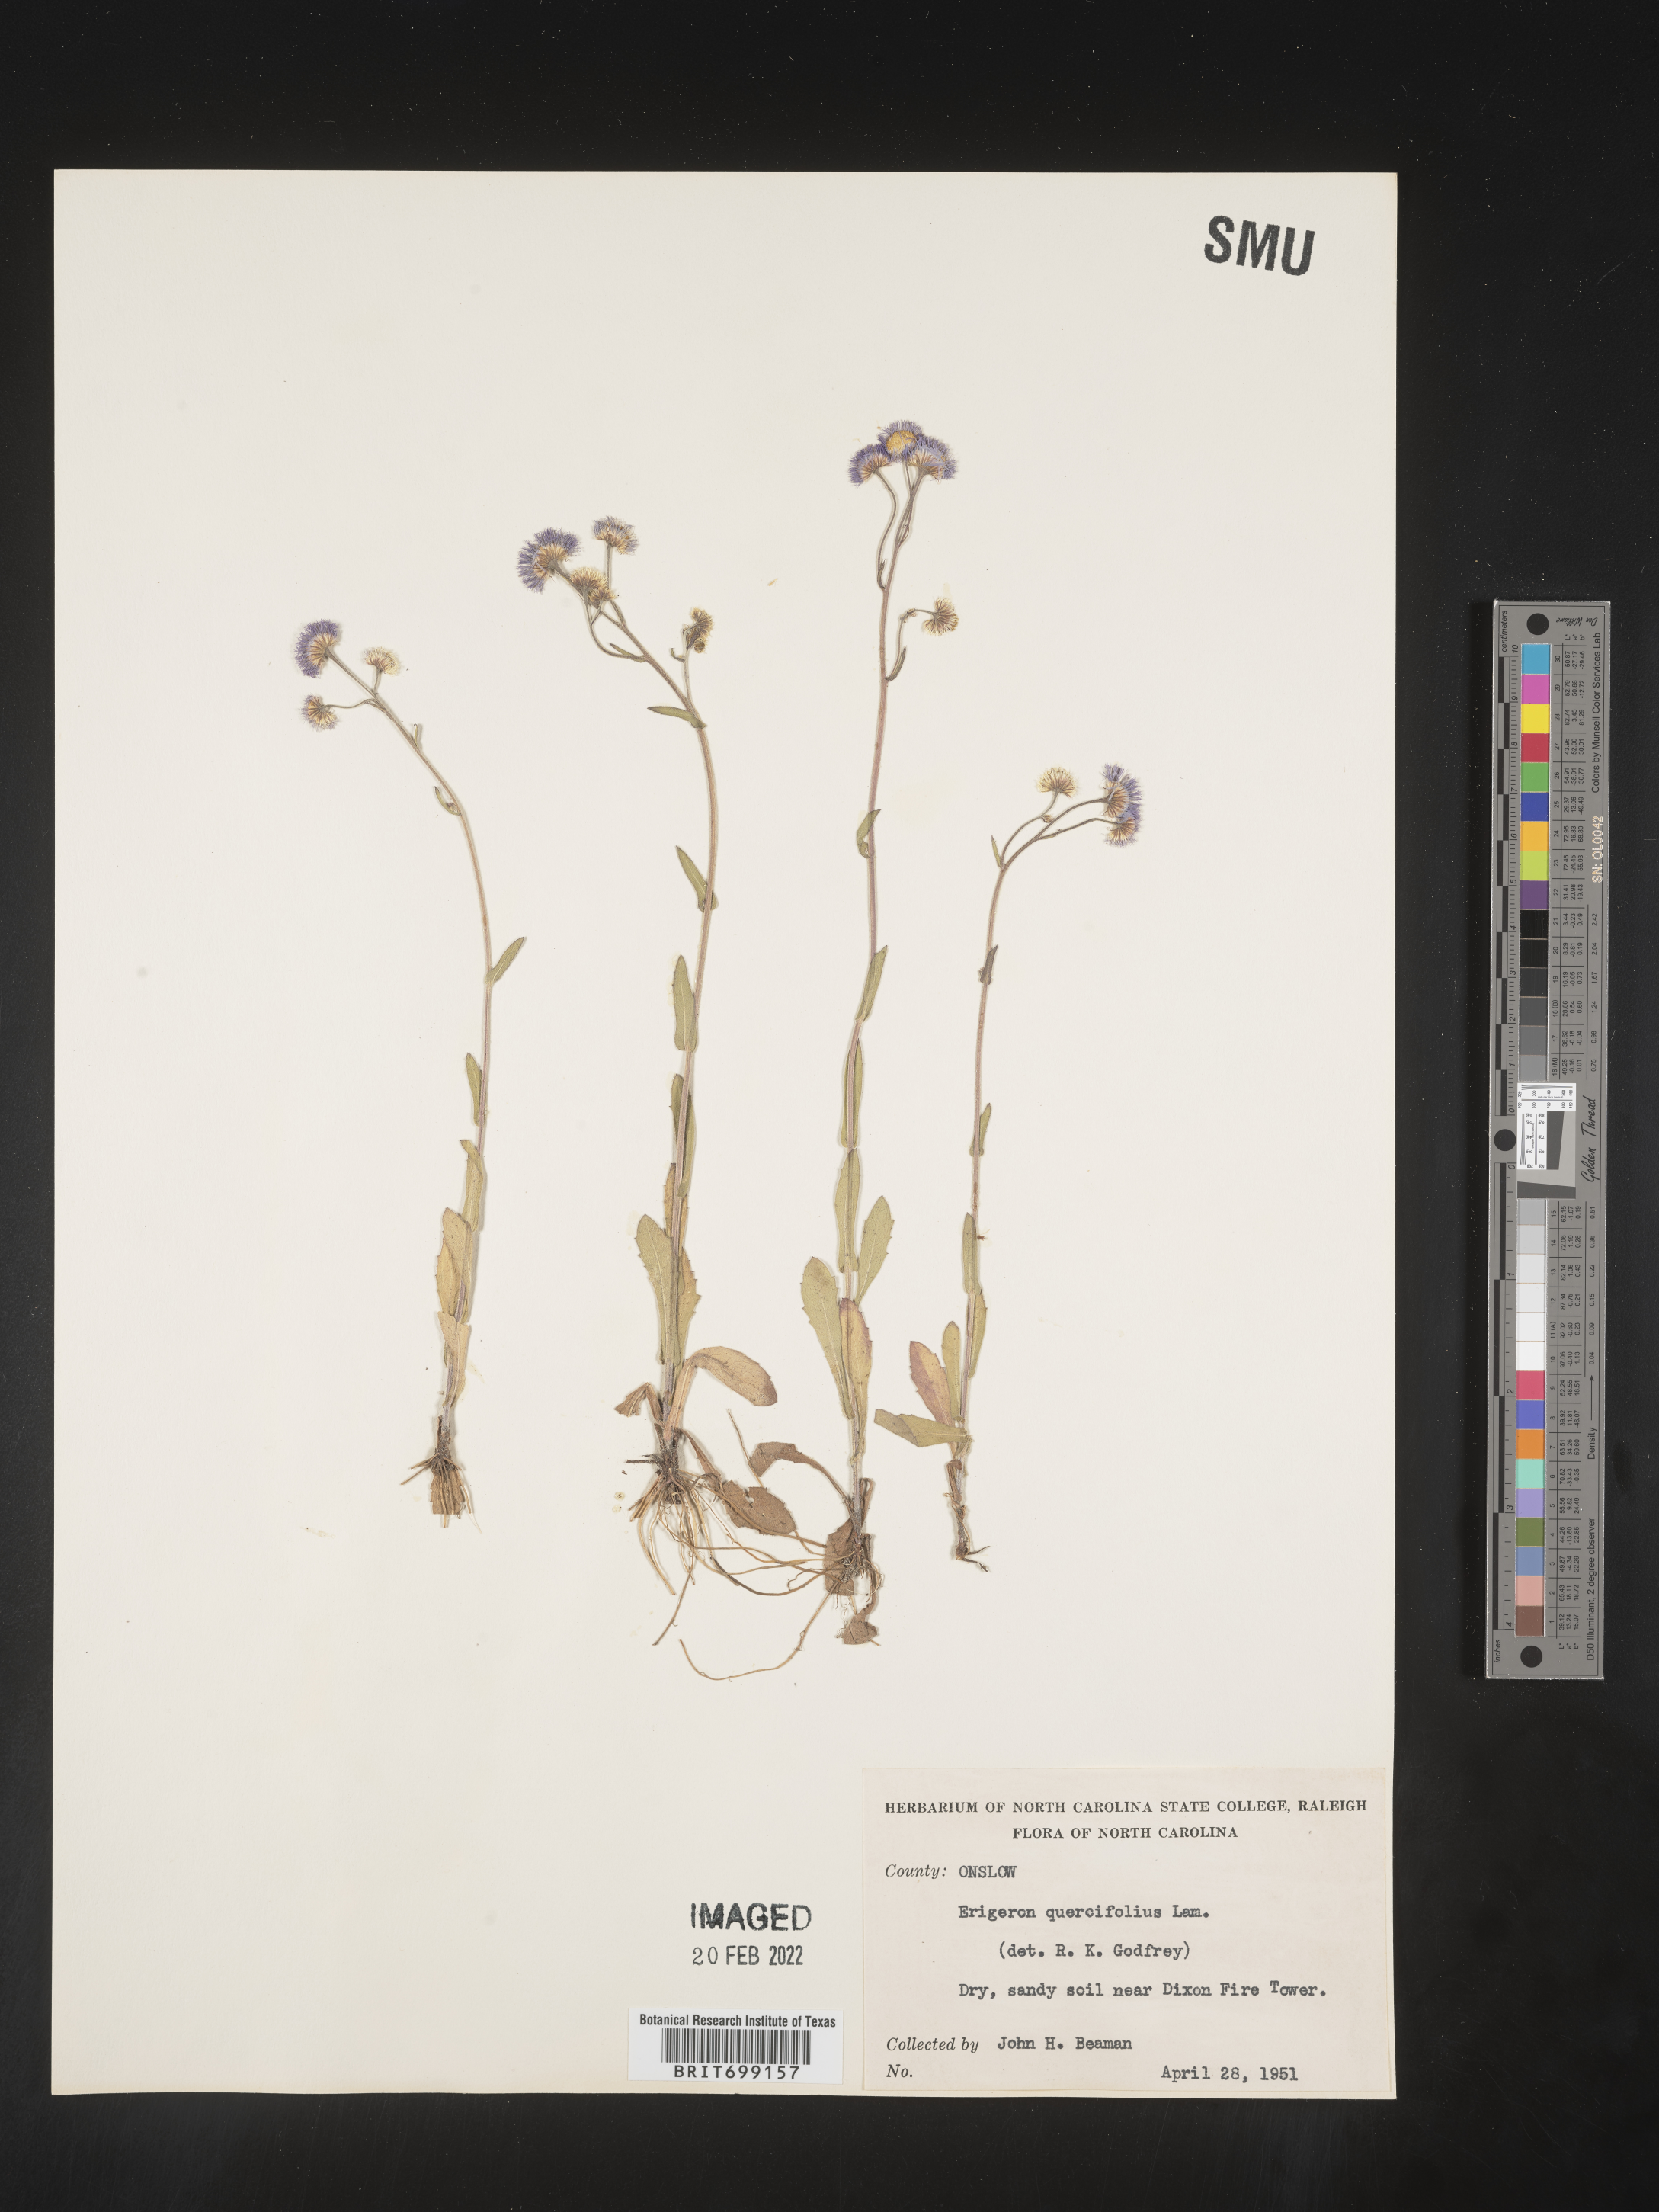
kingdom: Plantae
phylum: Tracheophyta
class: Magnoliopsida
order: Asterales
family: Asteraceae
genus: Erigeron
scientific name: Erigeron quercifolius
